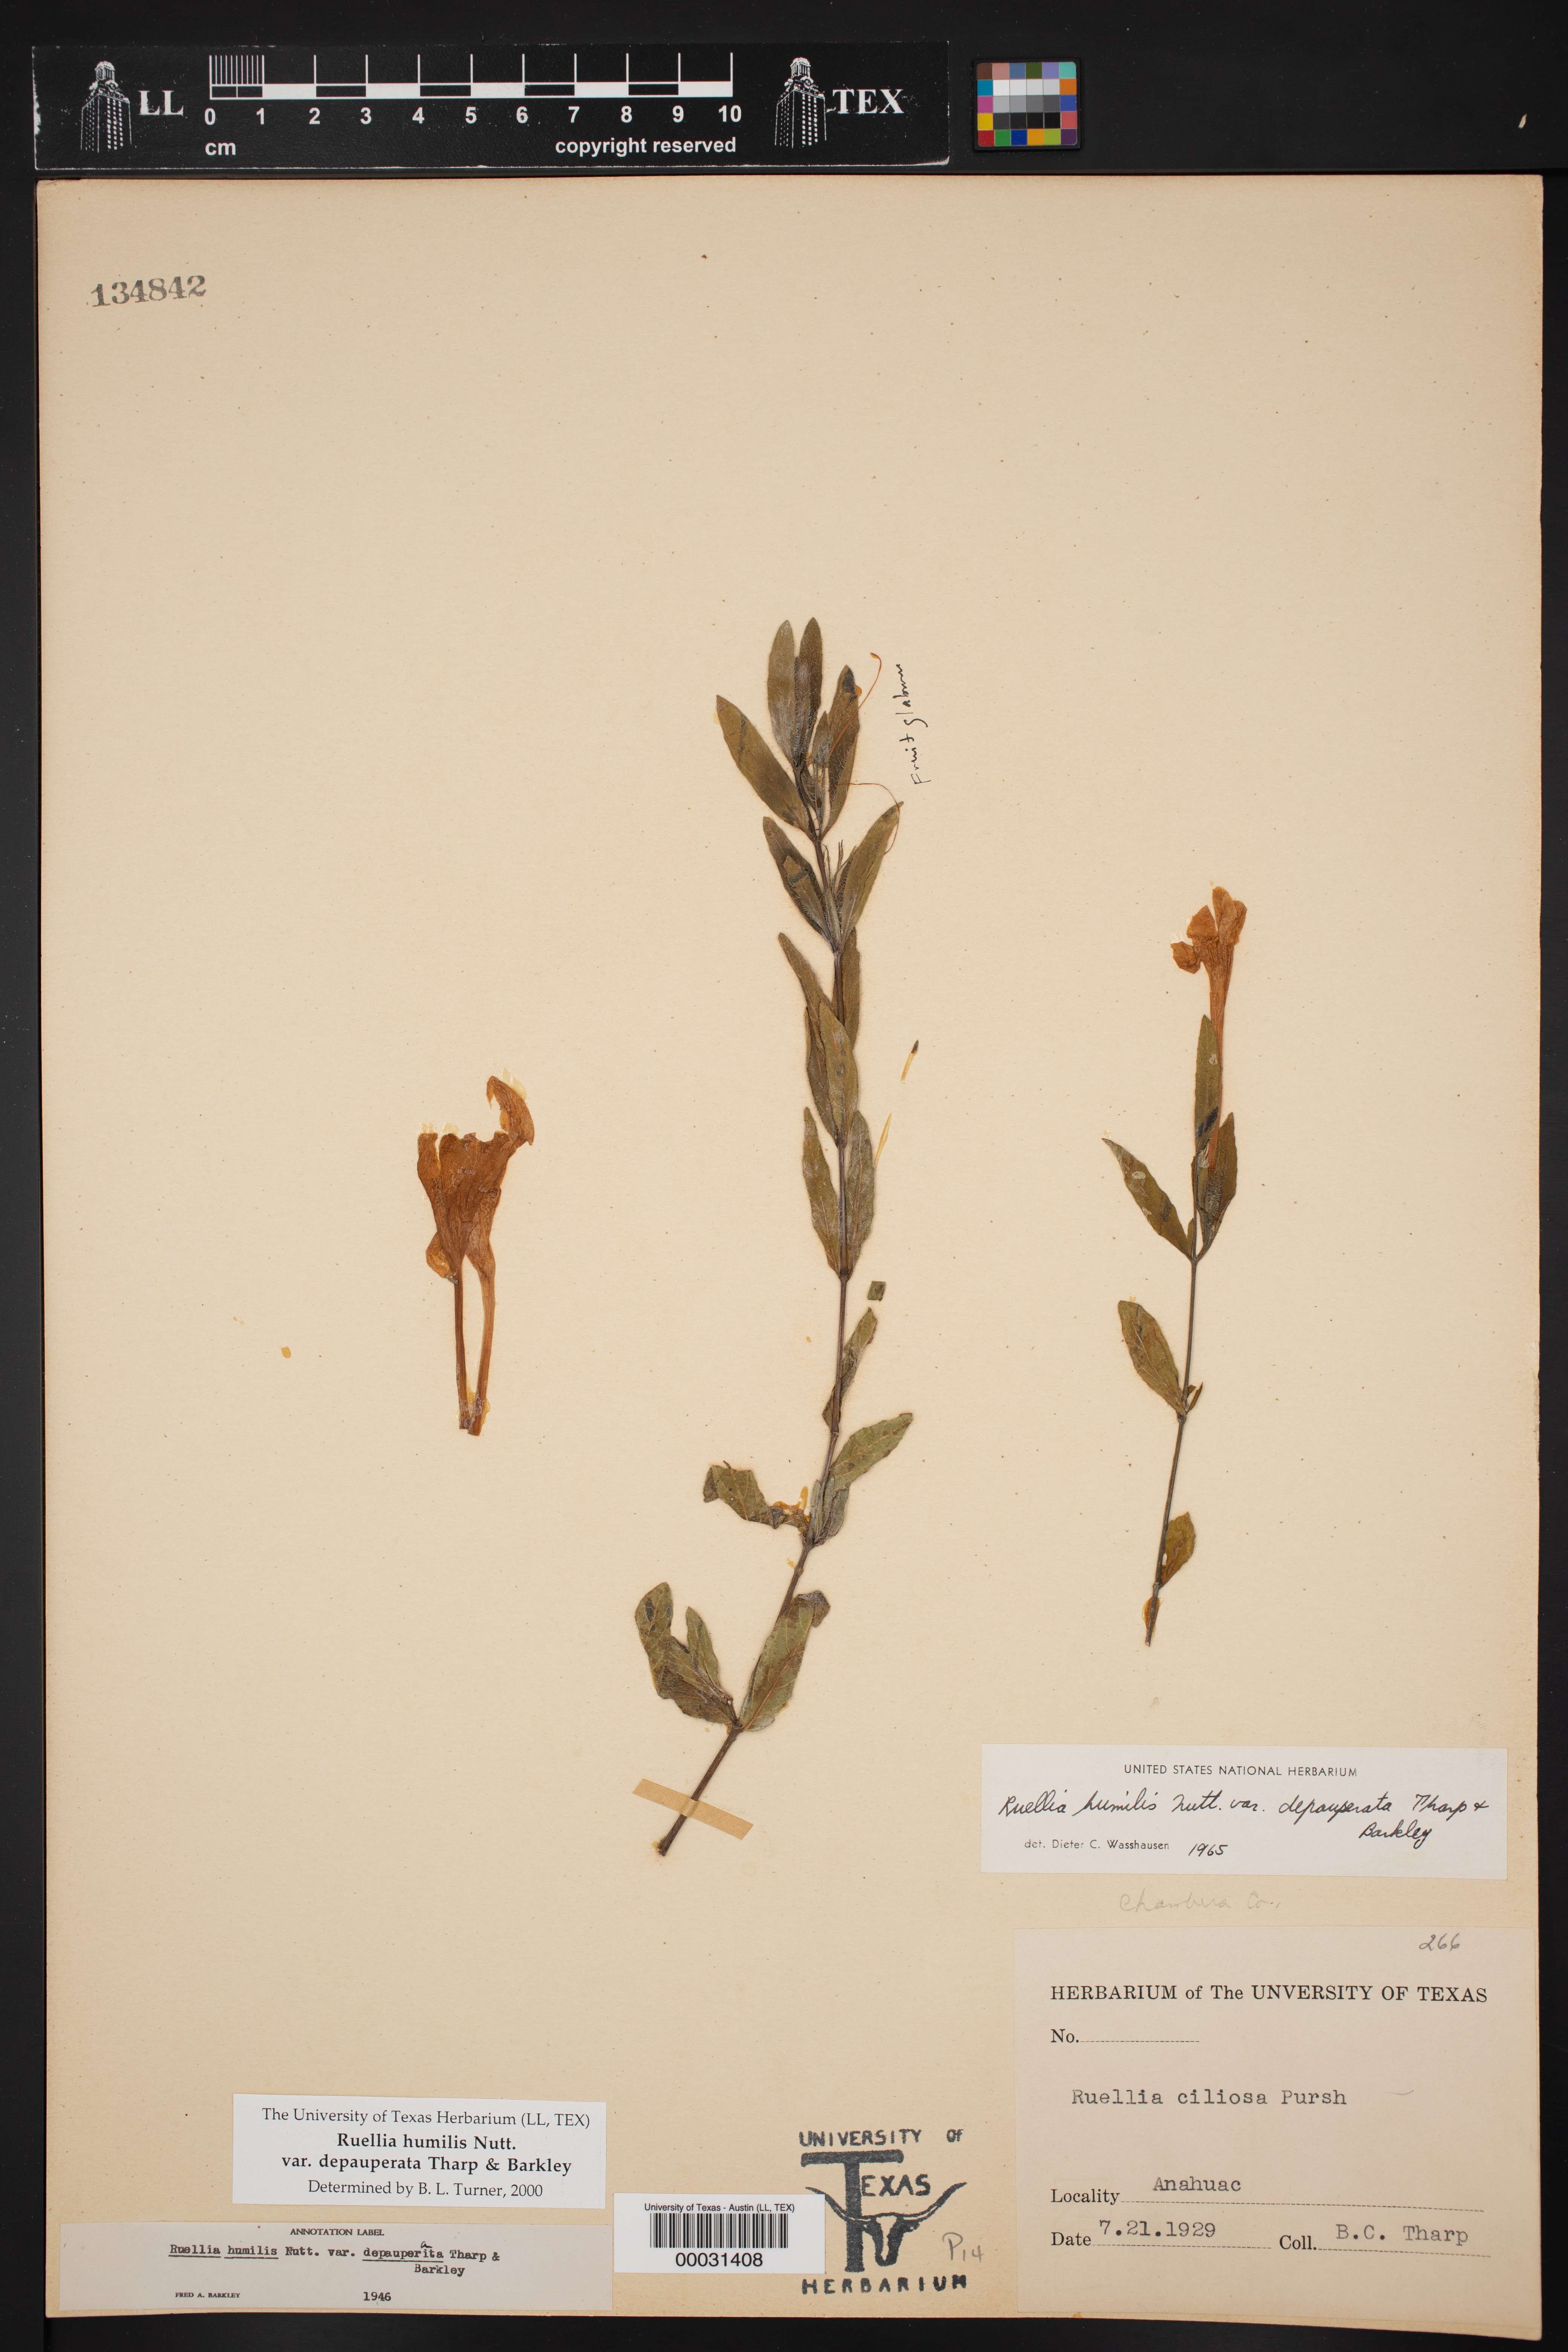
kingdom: Plantae
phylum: Tracheophyta
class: Magnoliopsida
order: Lamiales
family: Acanthaceae
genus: Ruellia
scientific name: Ruellia humilis
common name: Fringe-leaf ruellia
